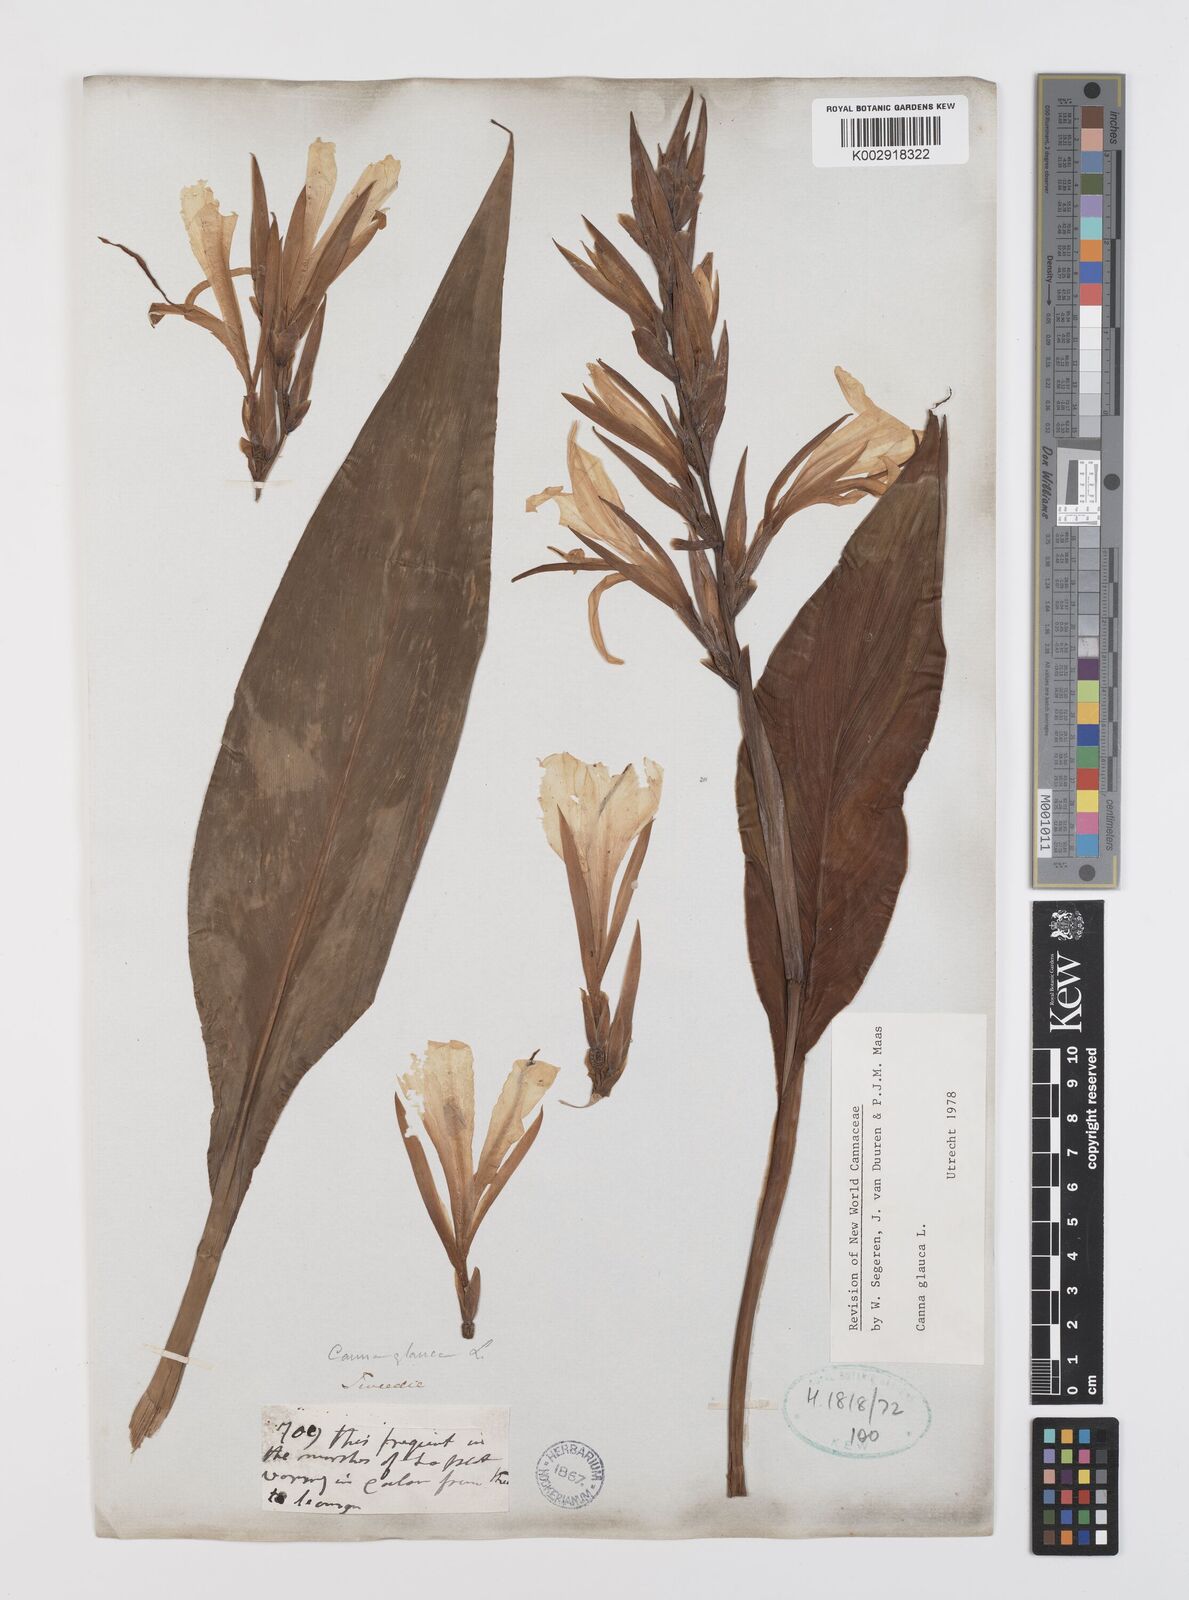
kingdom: Plantae
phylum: Tracheophyta
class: Liliopsida
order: Zingiberales
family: Cannaceae
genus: Canna
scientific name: Canna glauca
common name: Louisiana canna
